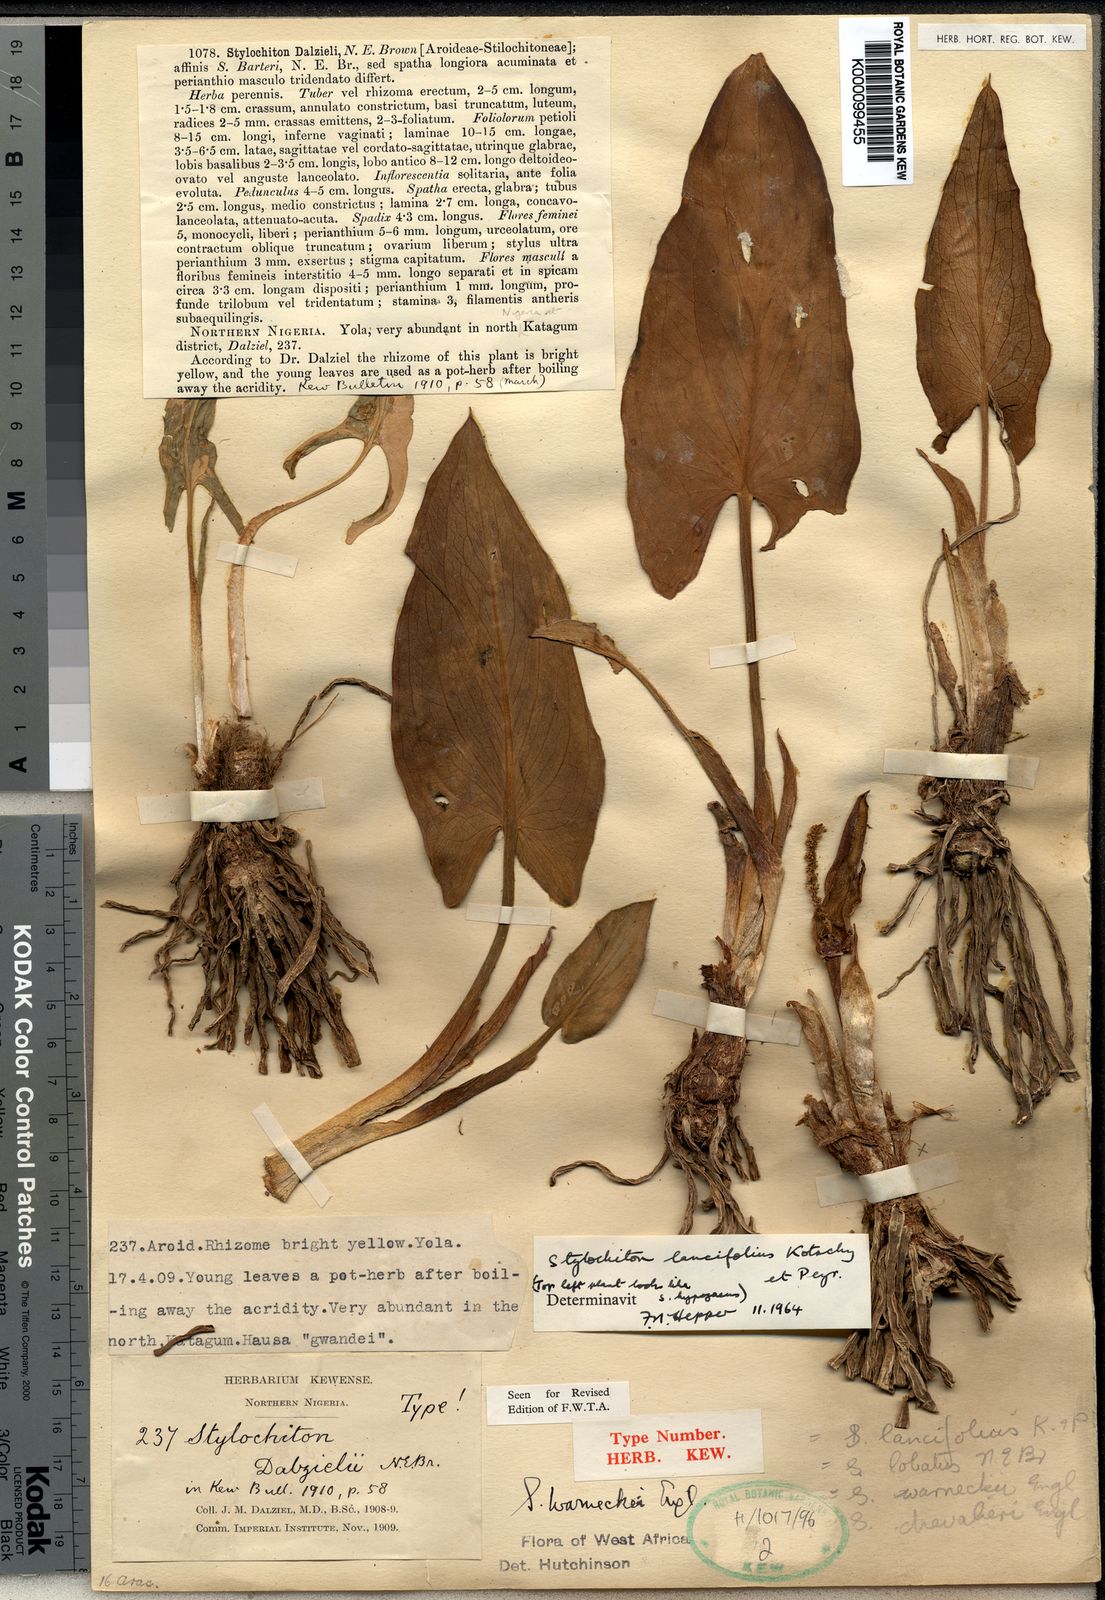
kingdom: Plantae
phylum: Tracheophyta
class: Liliopsida
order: Alismatales
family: Araceae
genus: Stylochaeton
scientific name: Stylochaeton lancifolium
